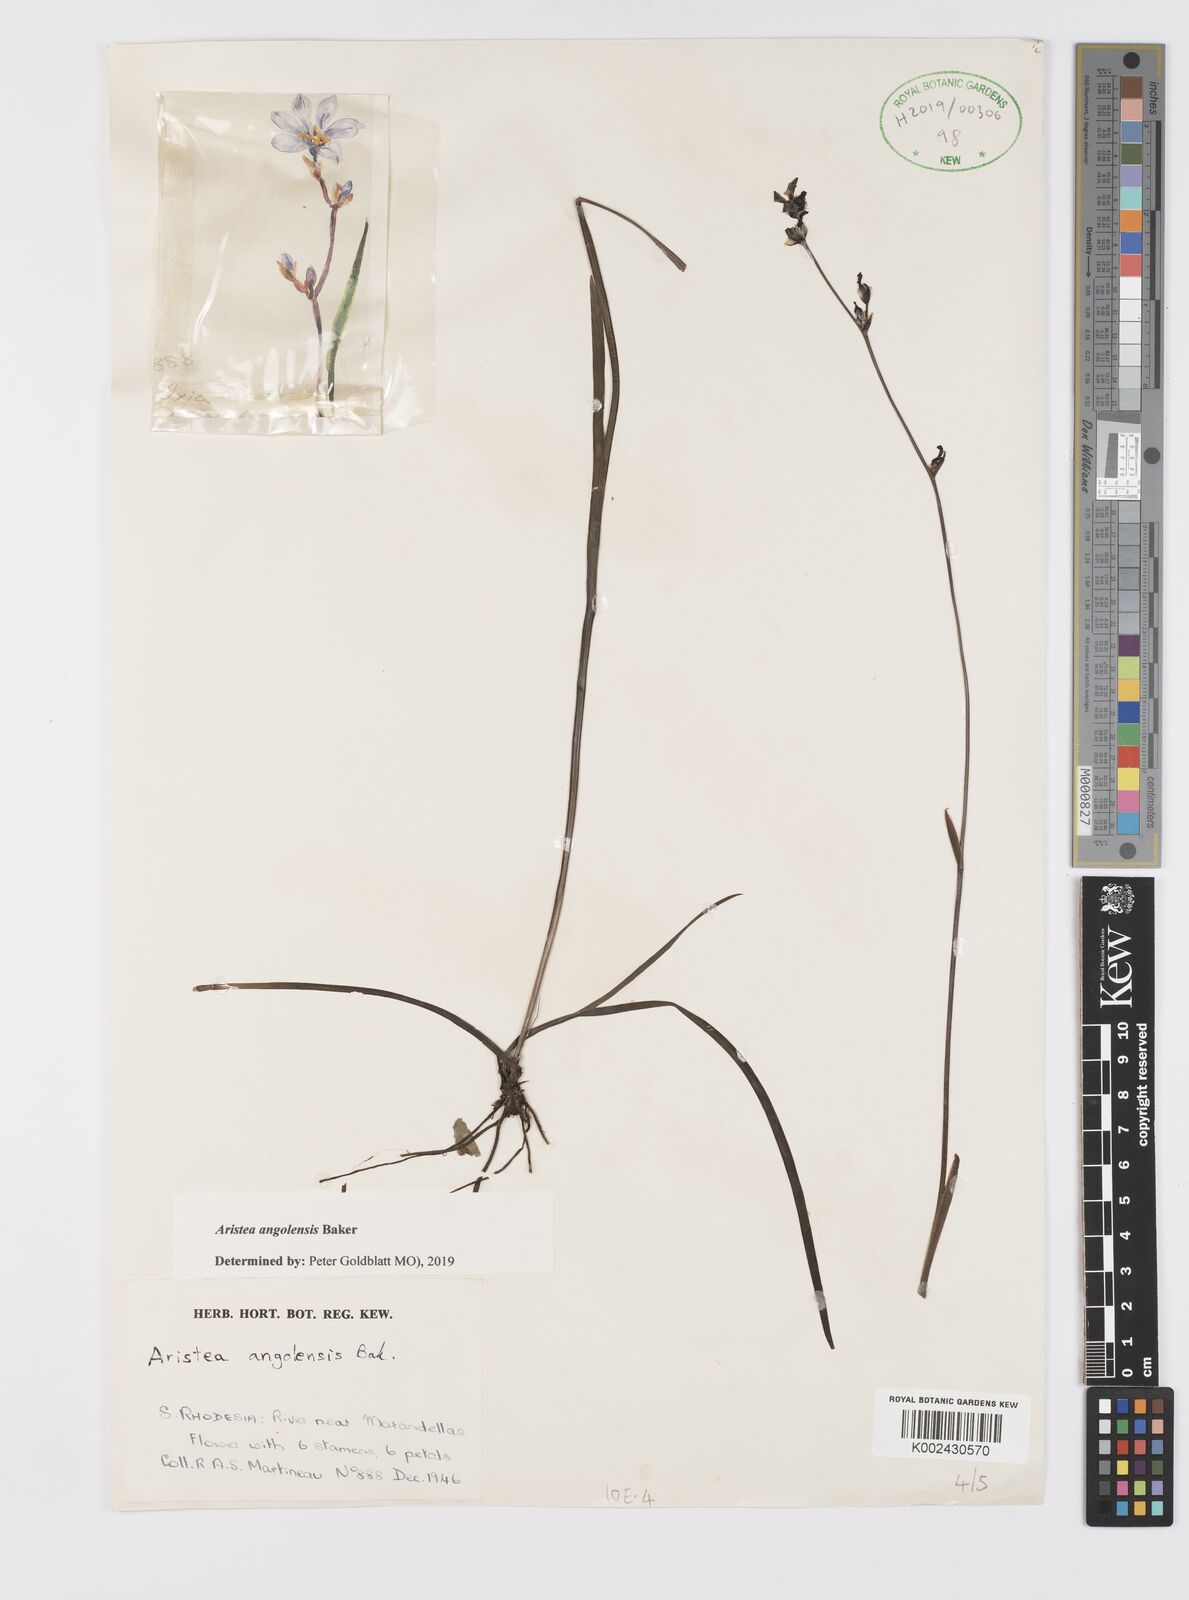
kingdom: Plantae
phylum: Tracheophyta
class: Liliopsida
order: Asparagales
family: Iridaceae
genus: Aristea
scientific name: Aristea angolensis
